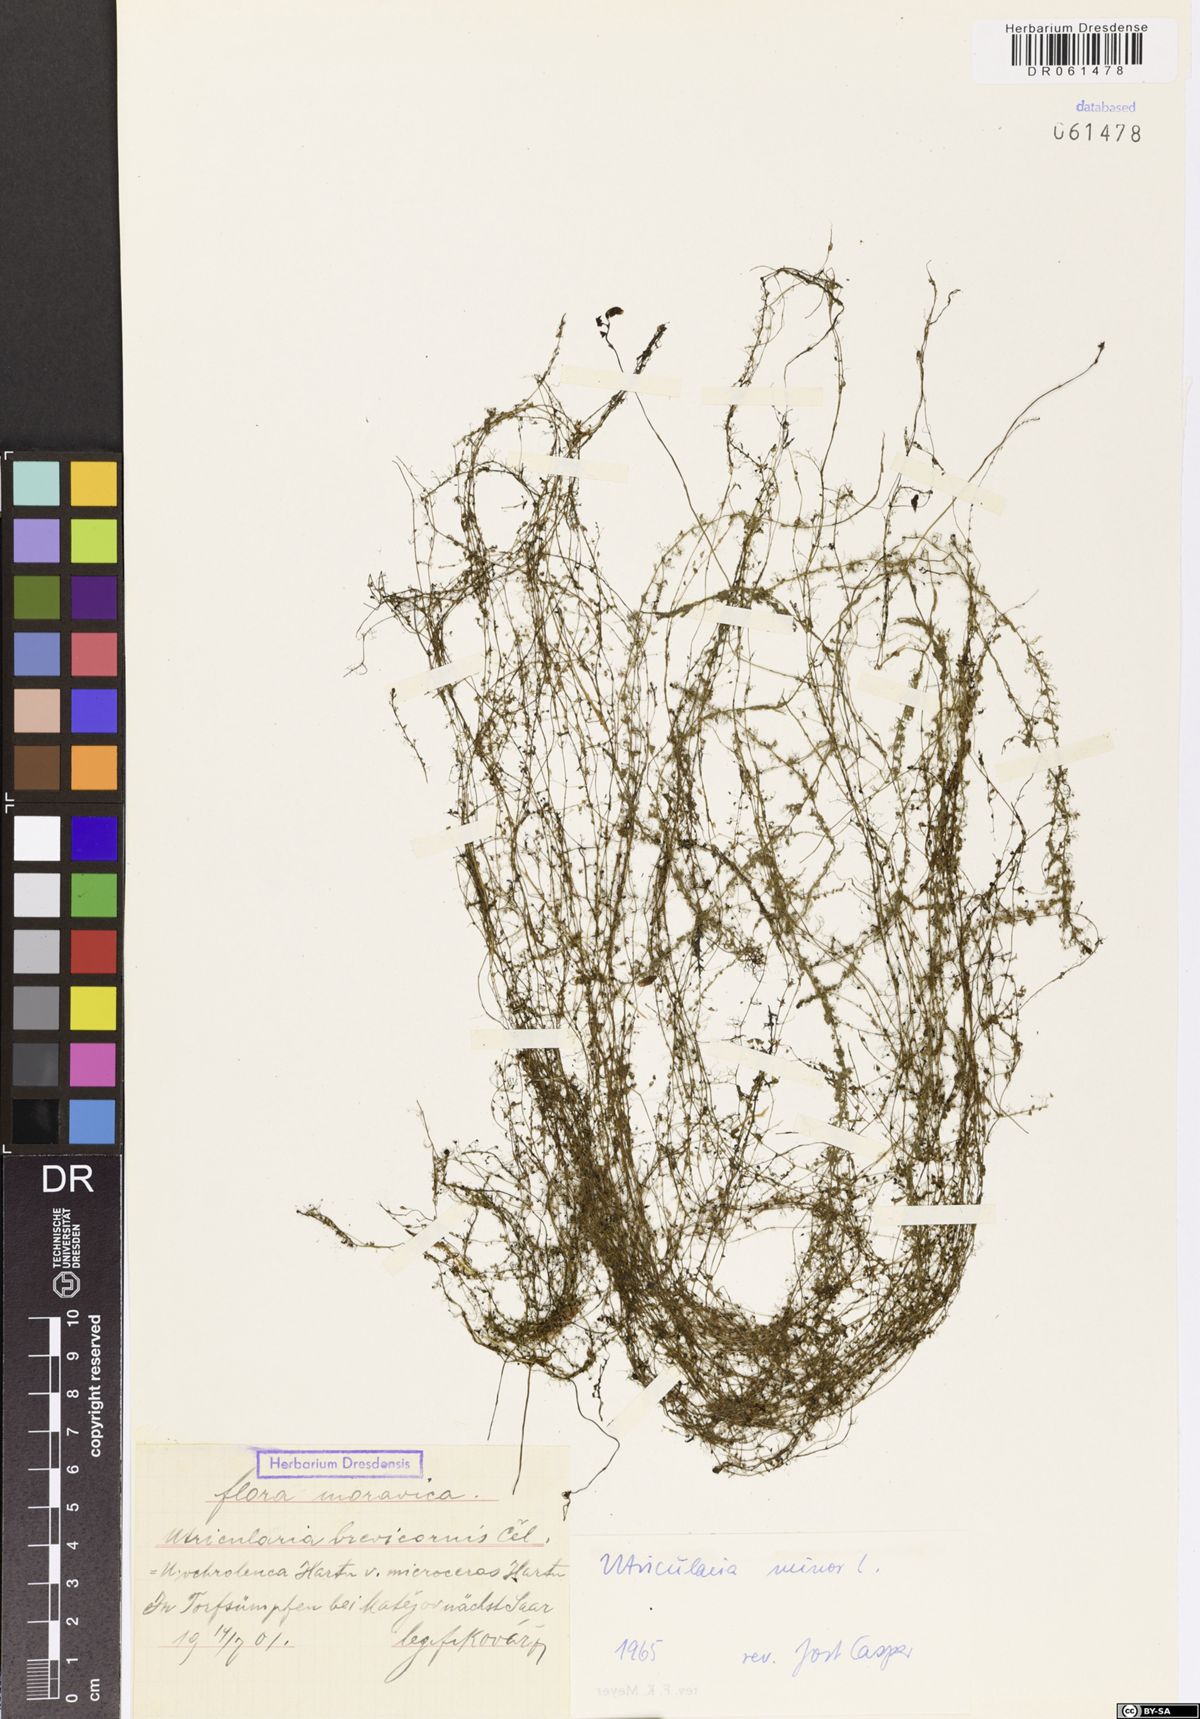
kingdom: Plantae
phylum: Tracheophyta
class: Magnoliopsida
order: Lamiales
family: Lentibulariaceae
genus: Utricularia
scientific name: Utricularia minor
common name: Lesser bladderwort
